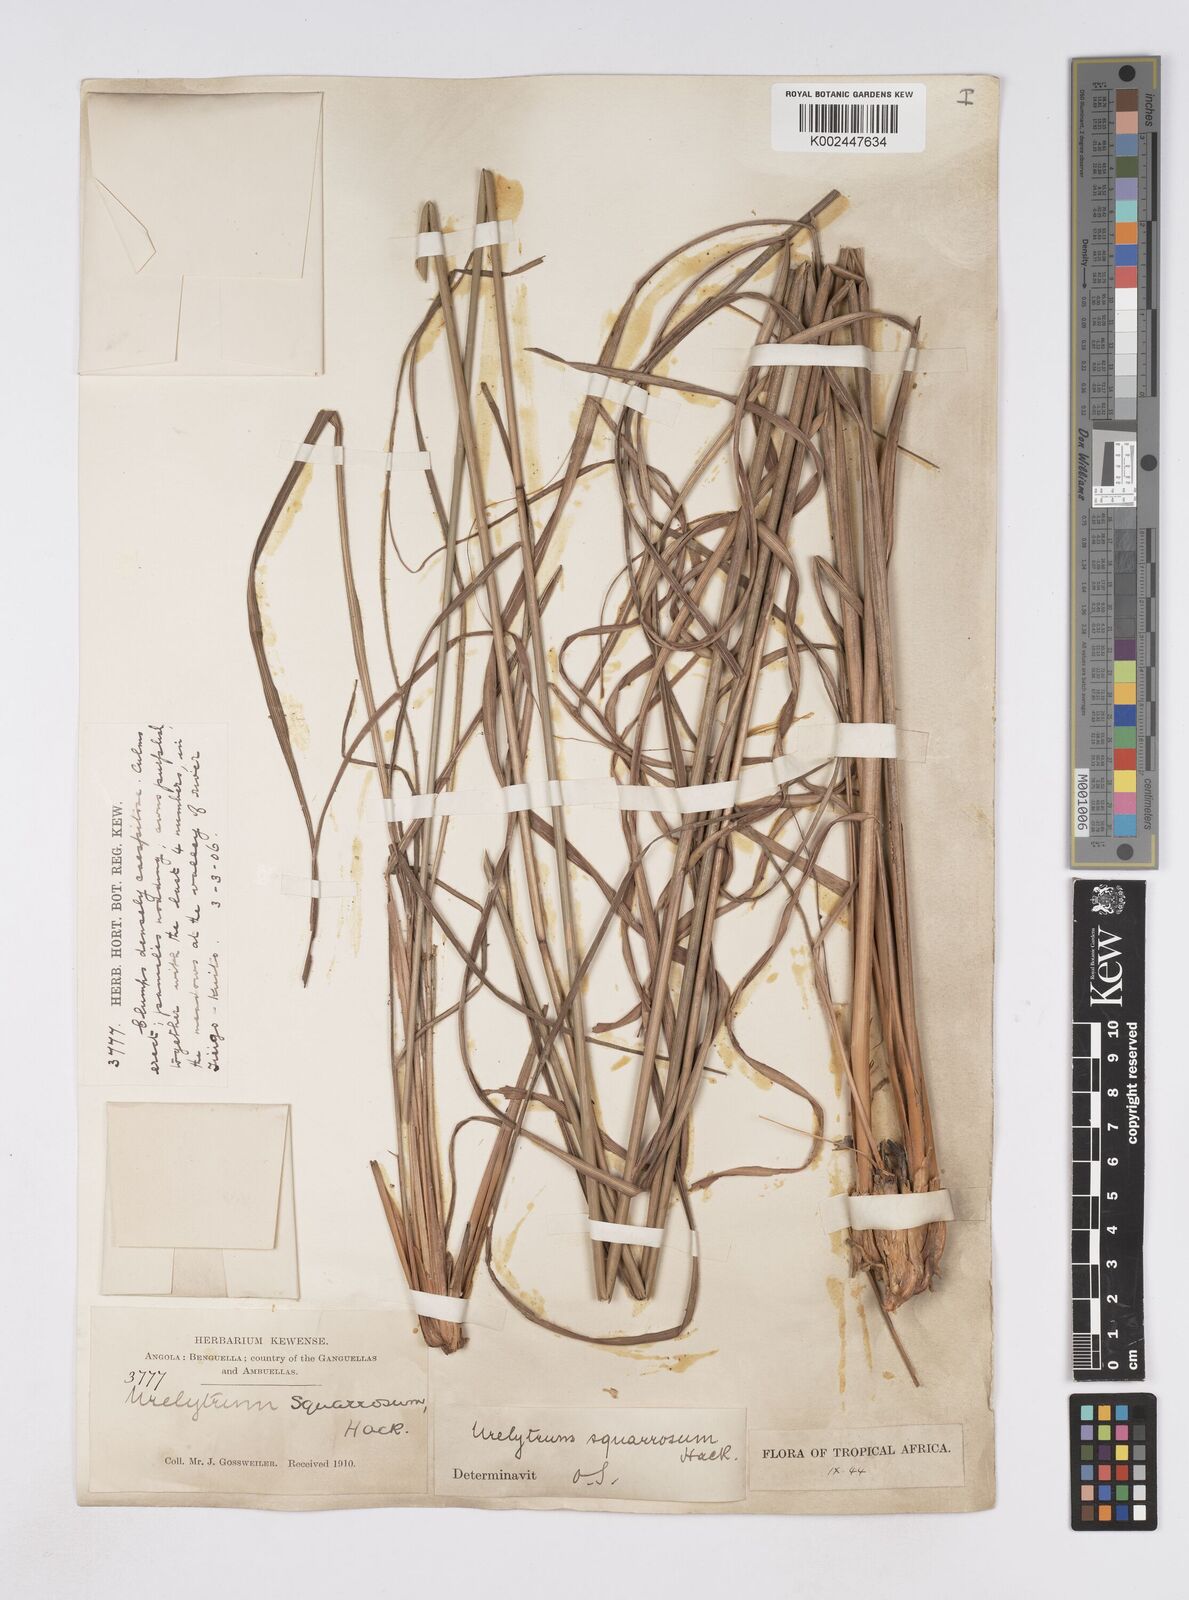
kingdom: Plantae
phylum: Tracheophyta
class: Liliopsida
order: Poales
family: Poaceae
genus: Urelytrum
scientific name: Urelytrum agropyroides
